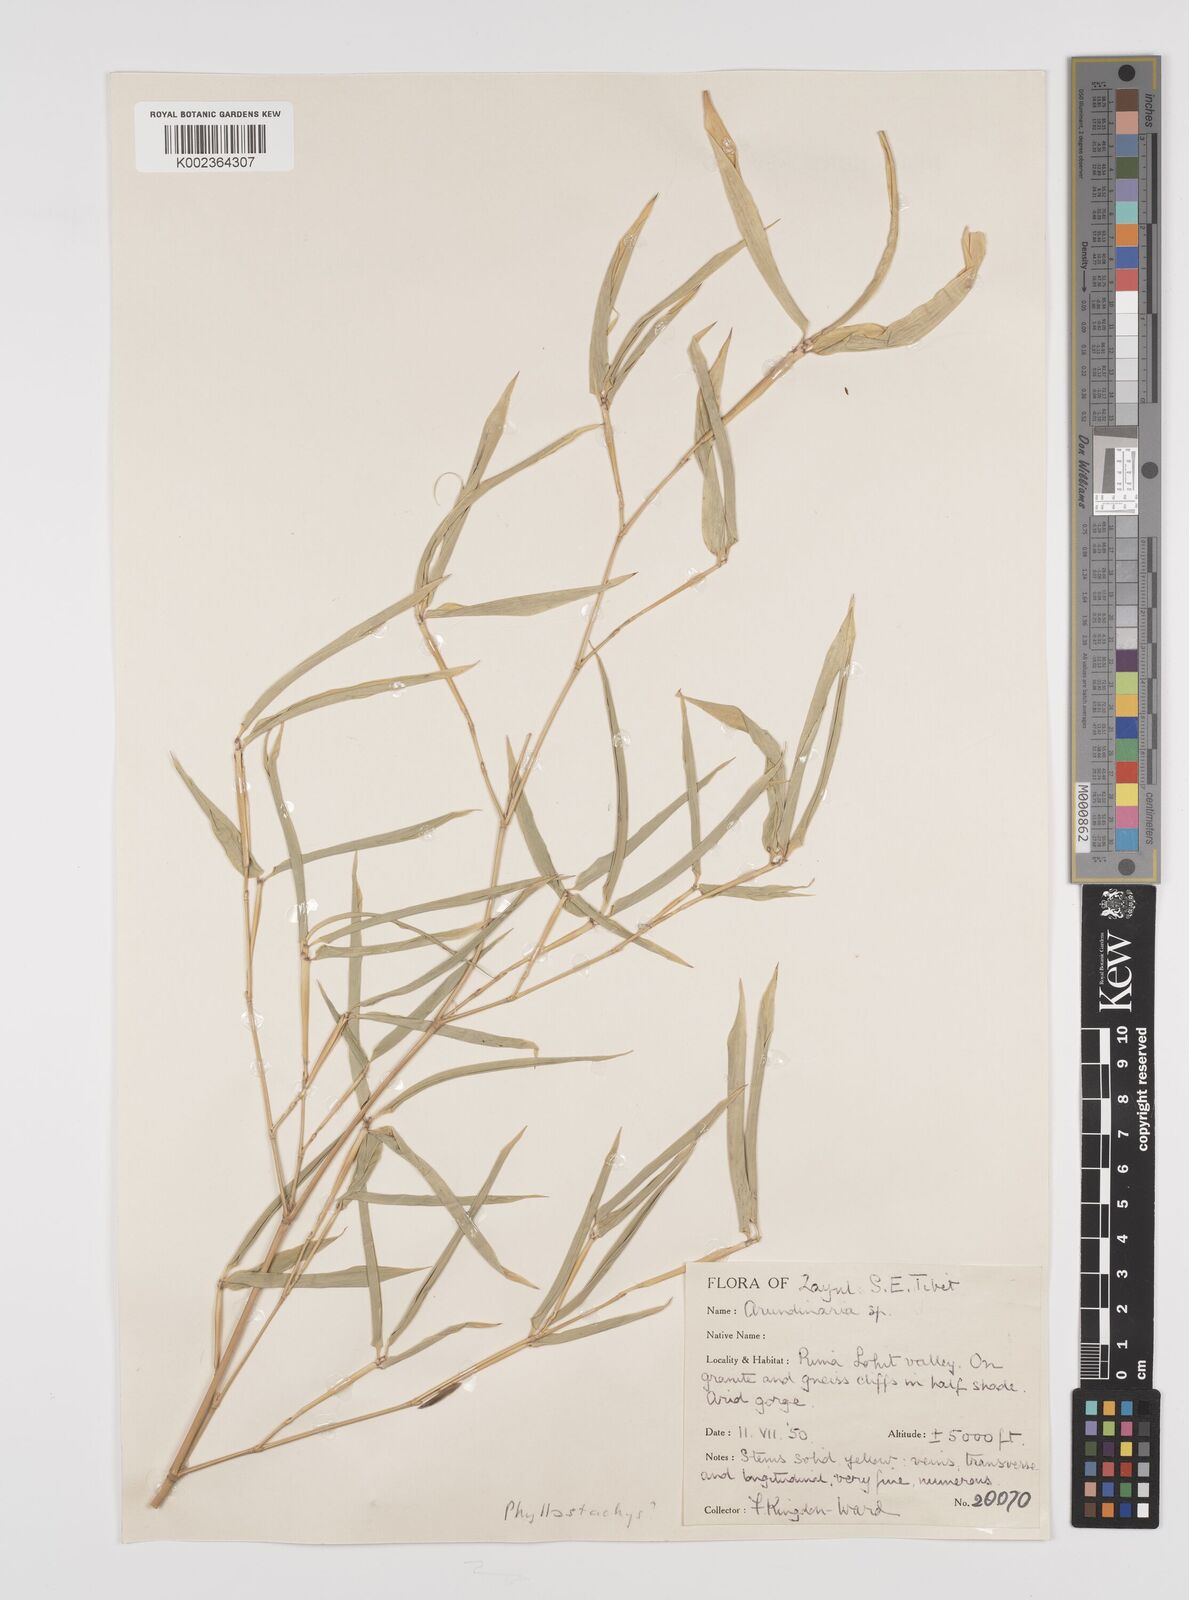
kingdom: Plantae
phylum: Tracheophyta
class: Liliopsida
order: Poales
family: Poaceae
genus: Phyllostachys
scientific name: Phyllostachys
